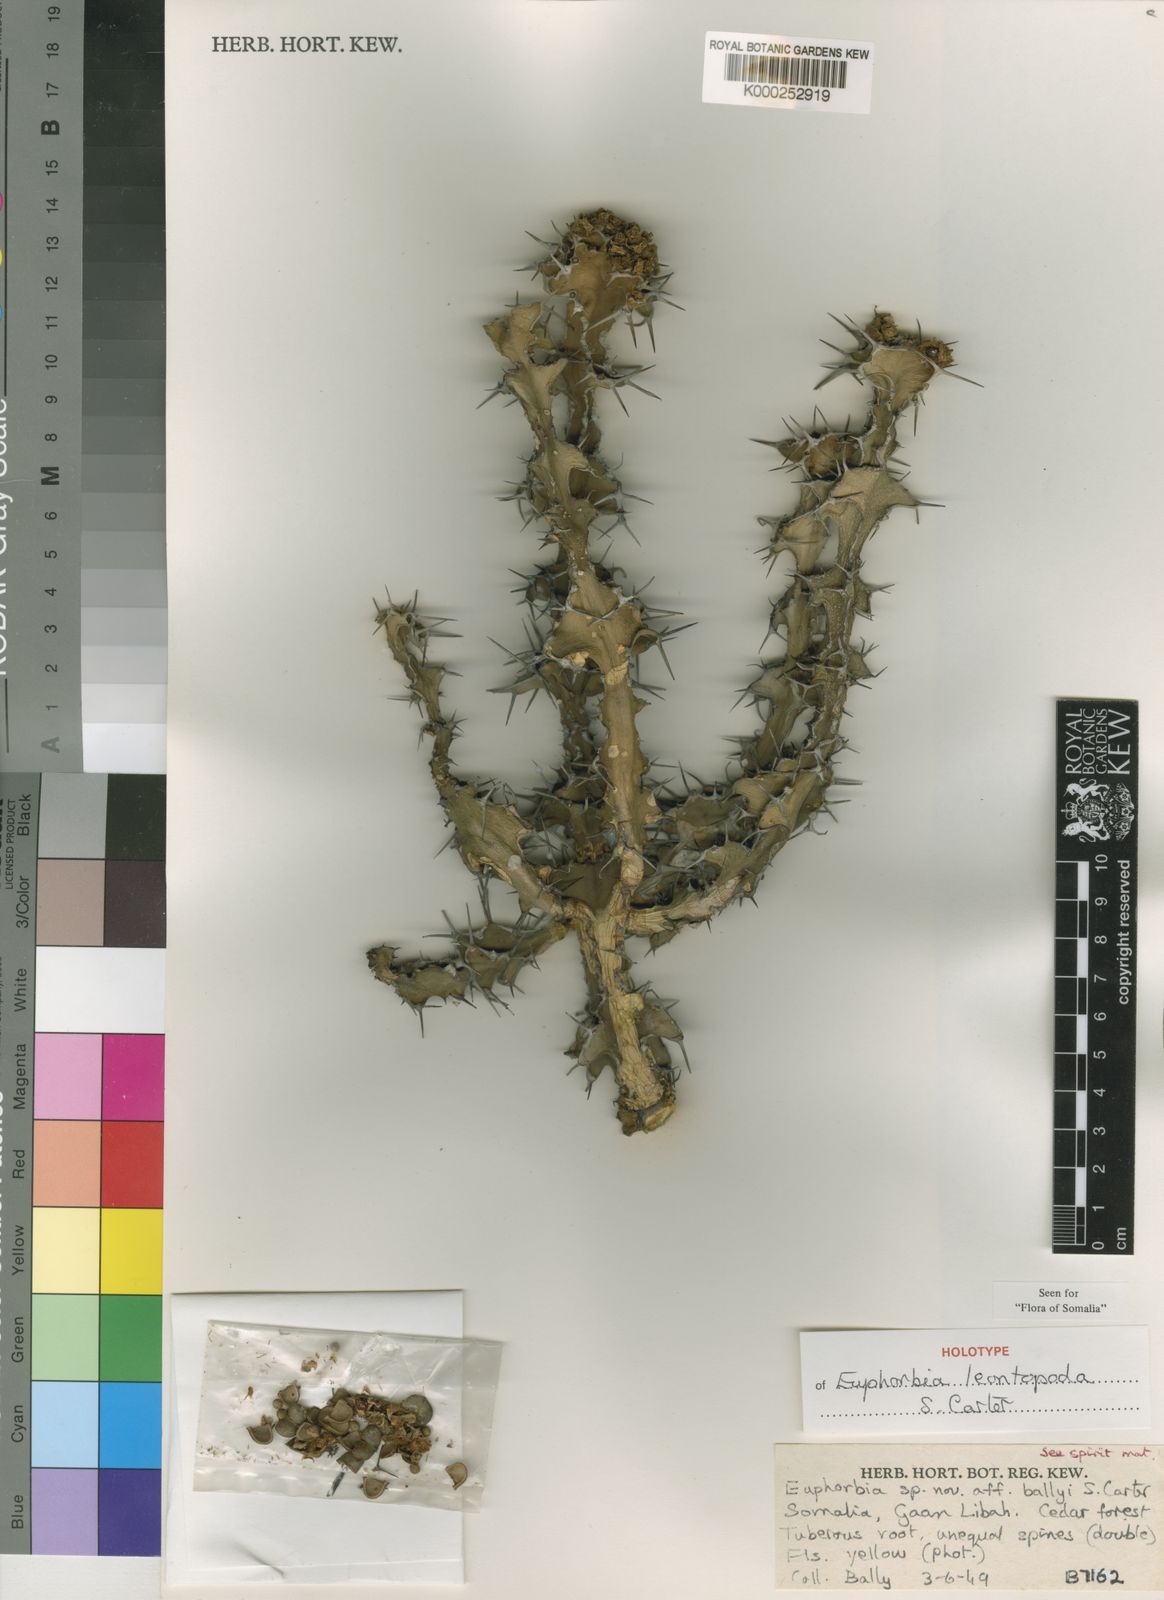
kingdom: Plantae
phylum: Tracheophyta
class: Magnoliopsida
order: Malpighiales
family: Euphorbiaceae
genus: Euphorbia
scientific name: Euphorbia leontopoda
